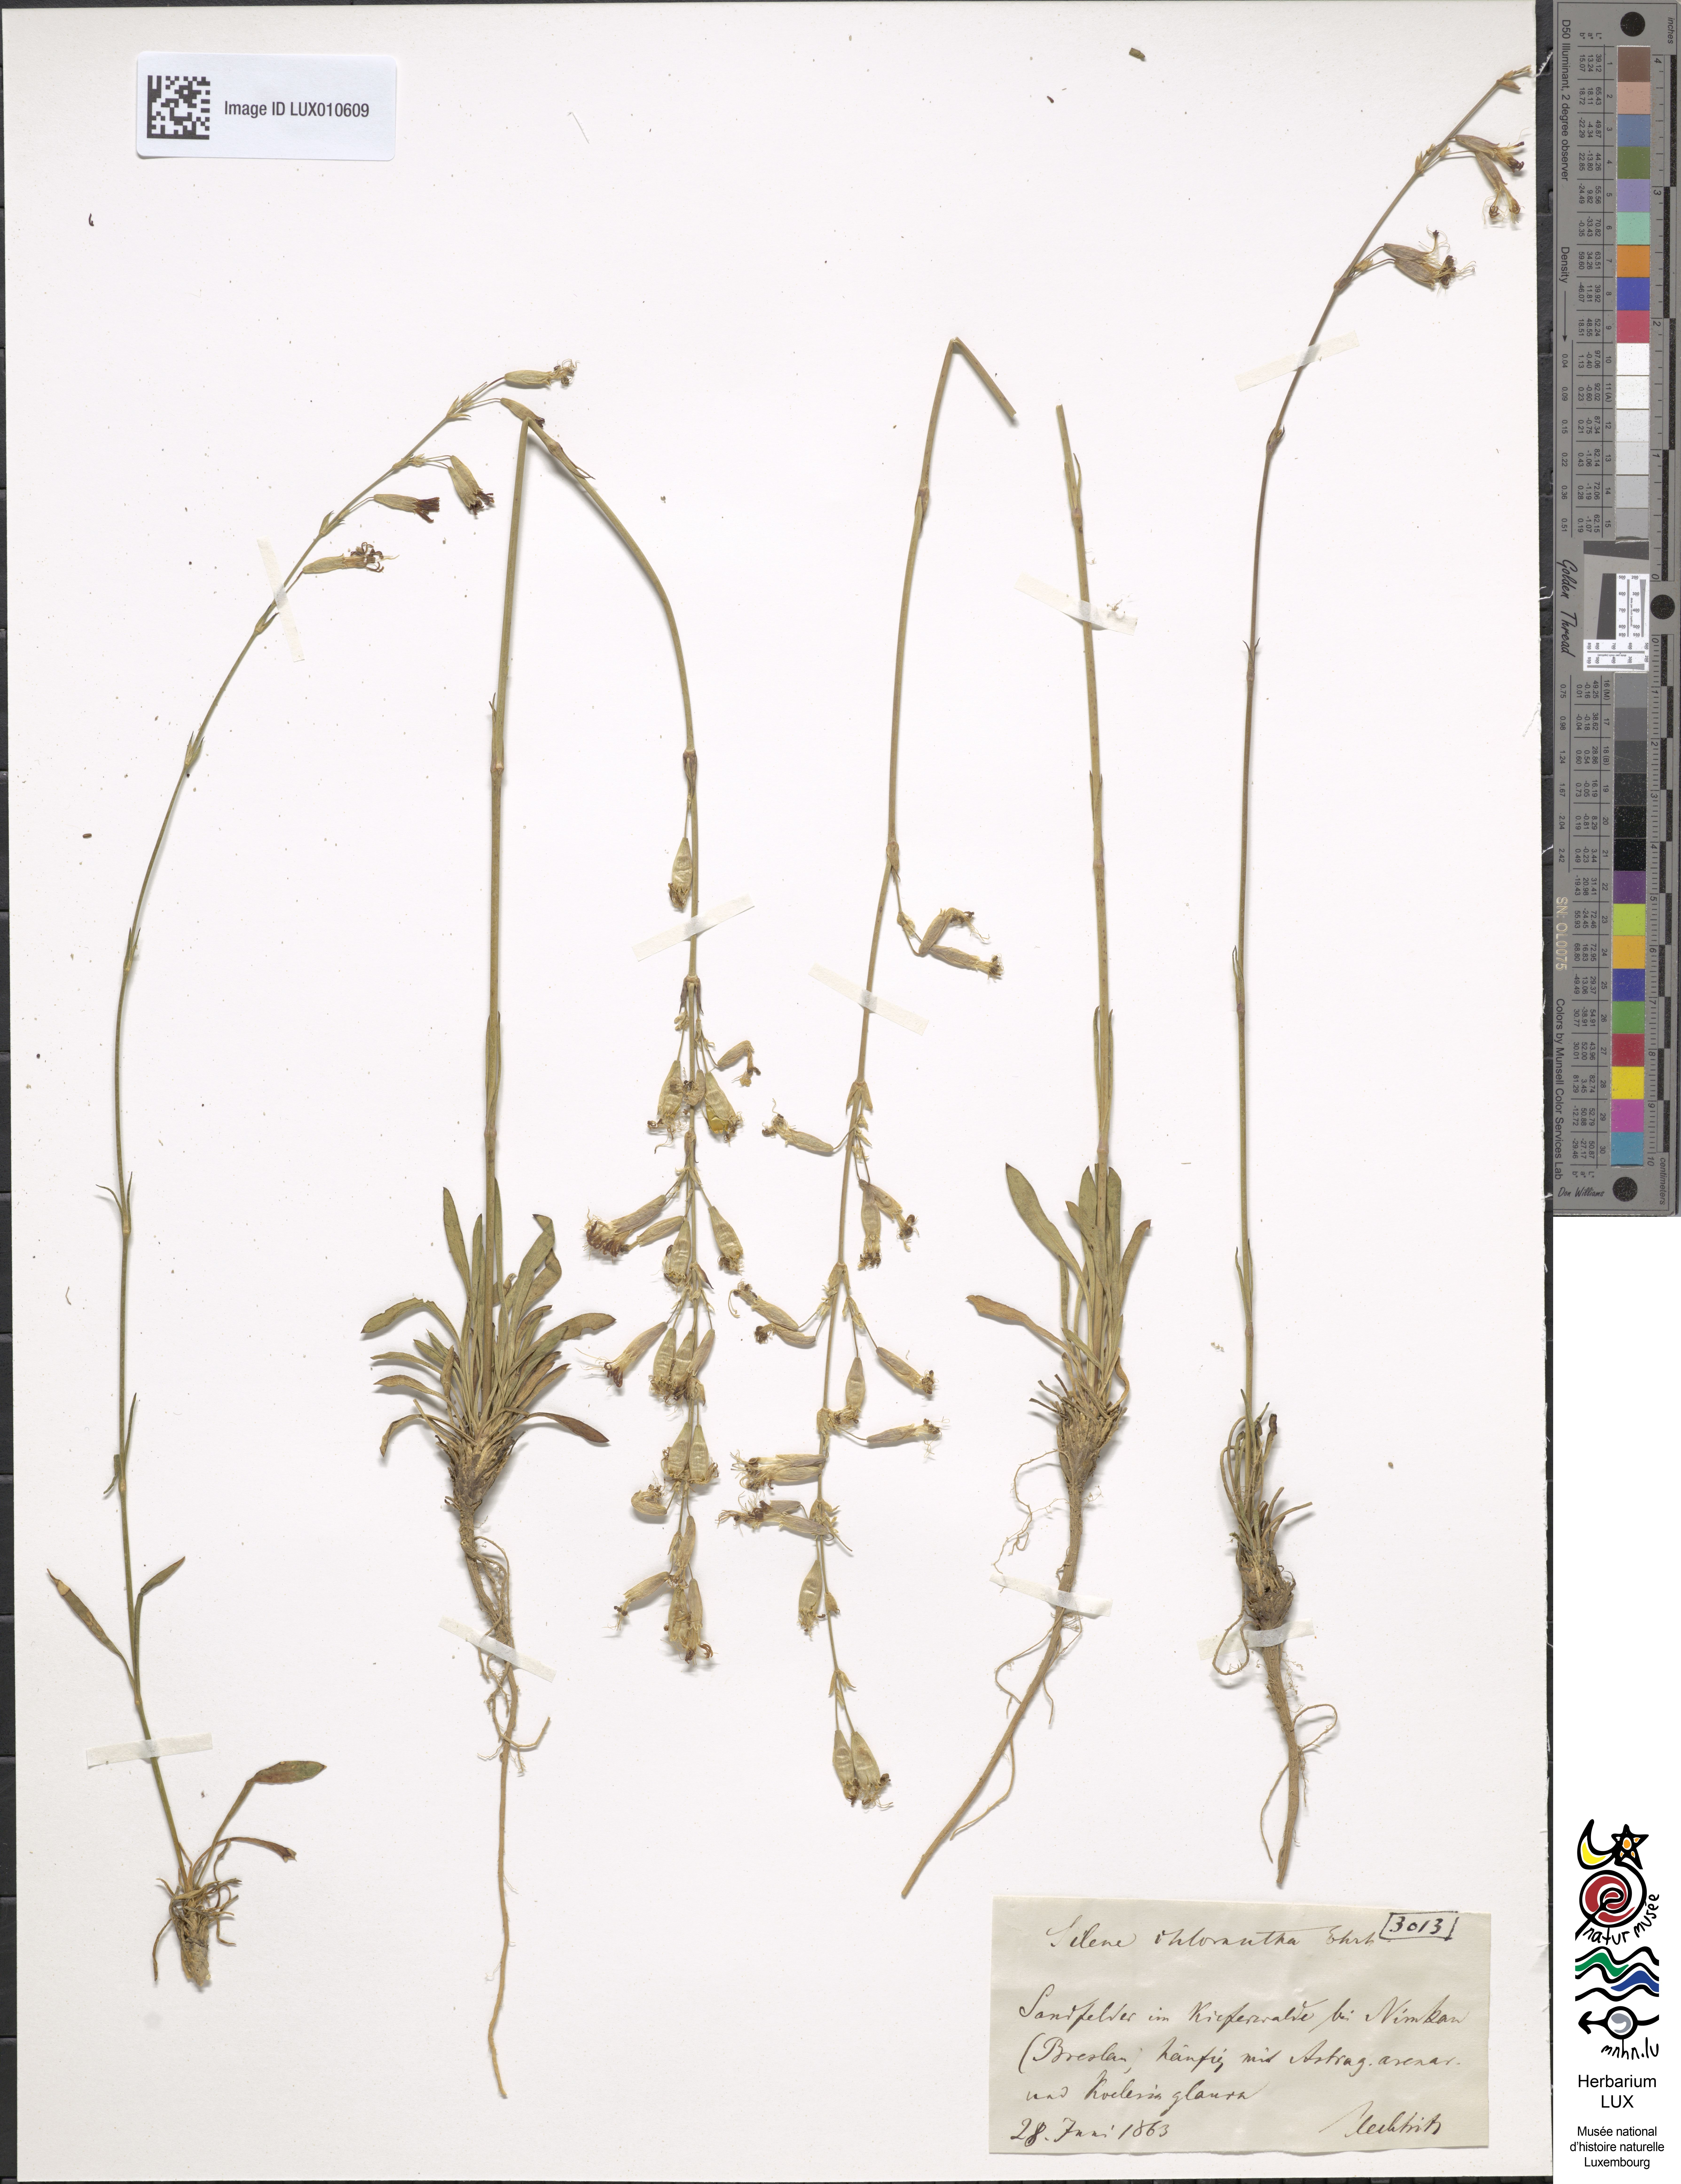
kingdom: Plantae
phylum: Tracheophyta
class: Magnoliopsida
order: Caryophyllales
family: Caryophyllaceae
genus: Silene
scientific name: Silene chlorantha
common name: Yellowgreen catchfly
